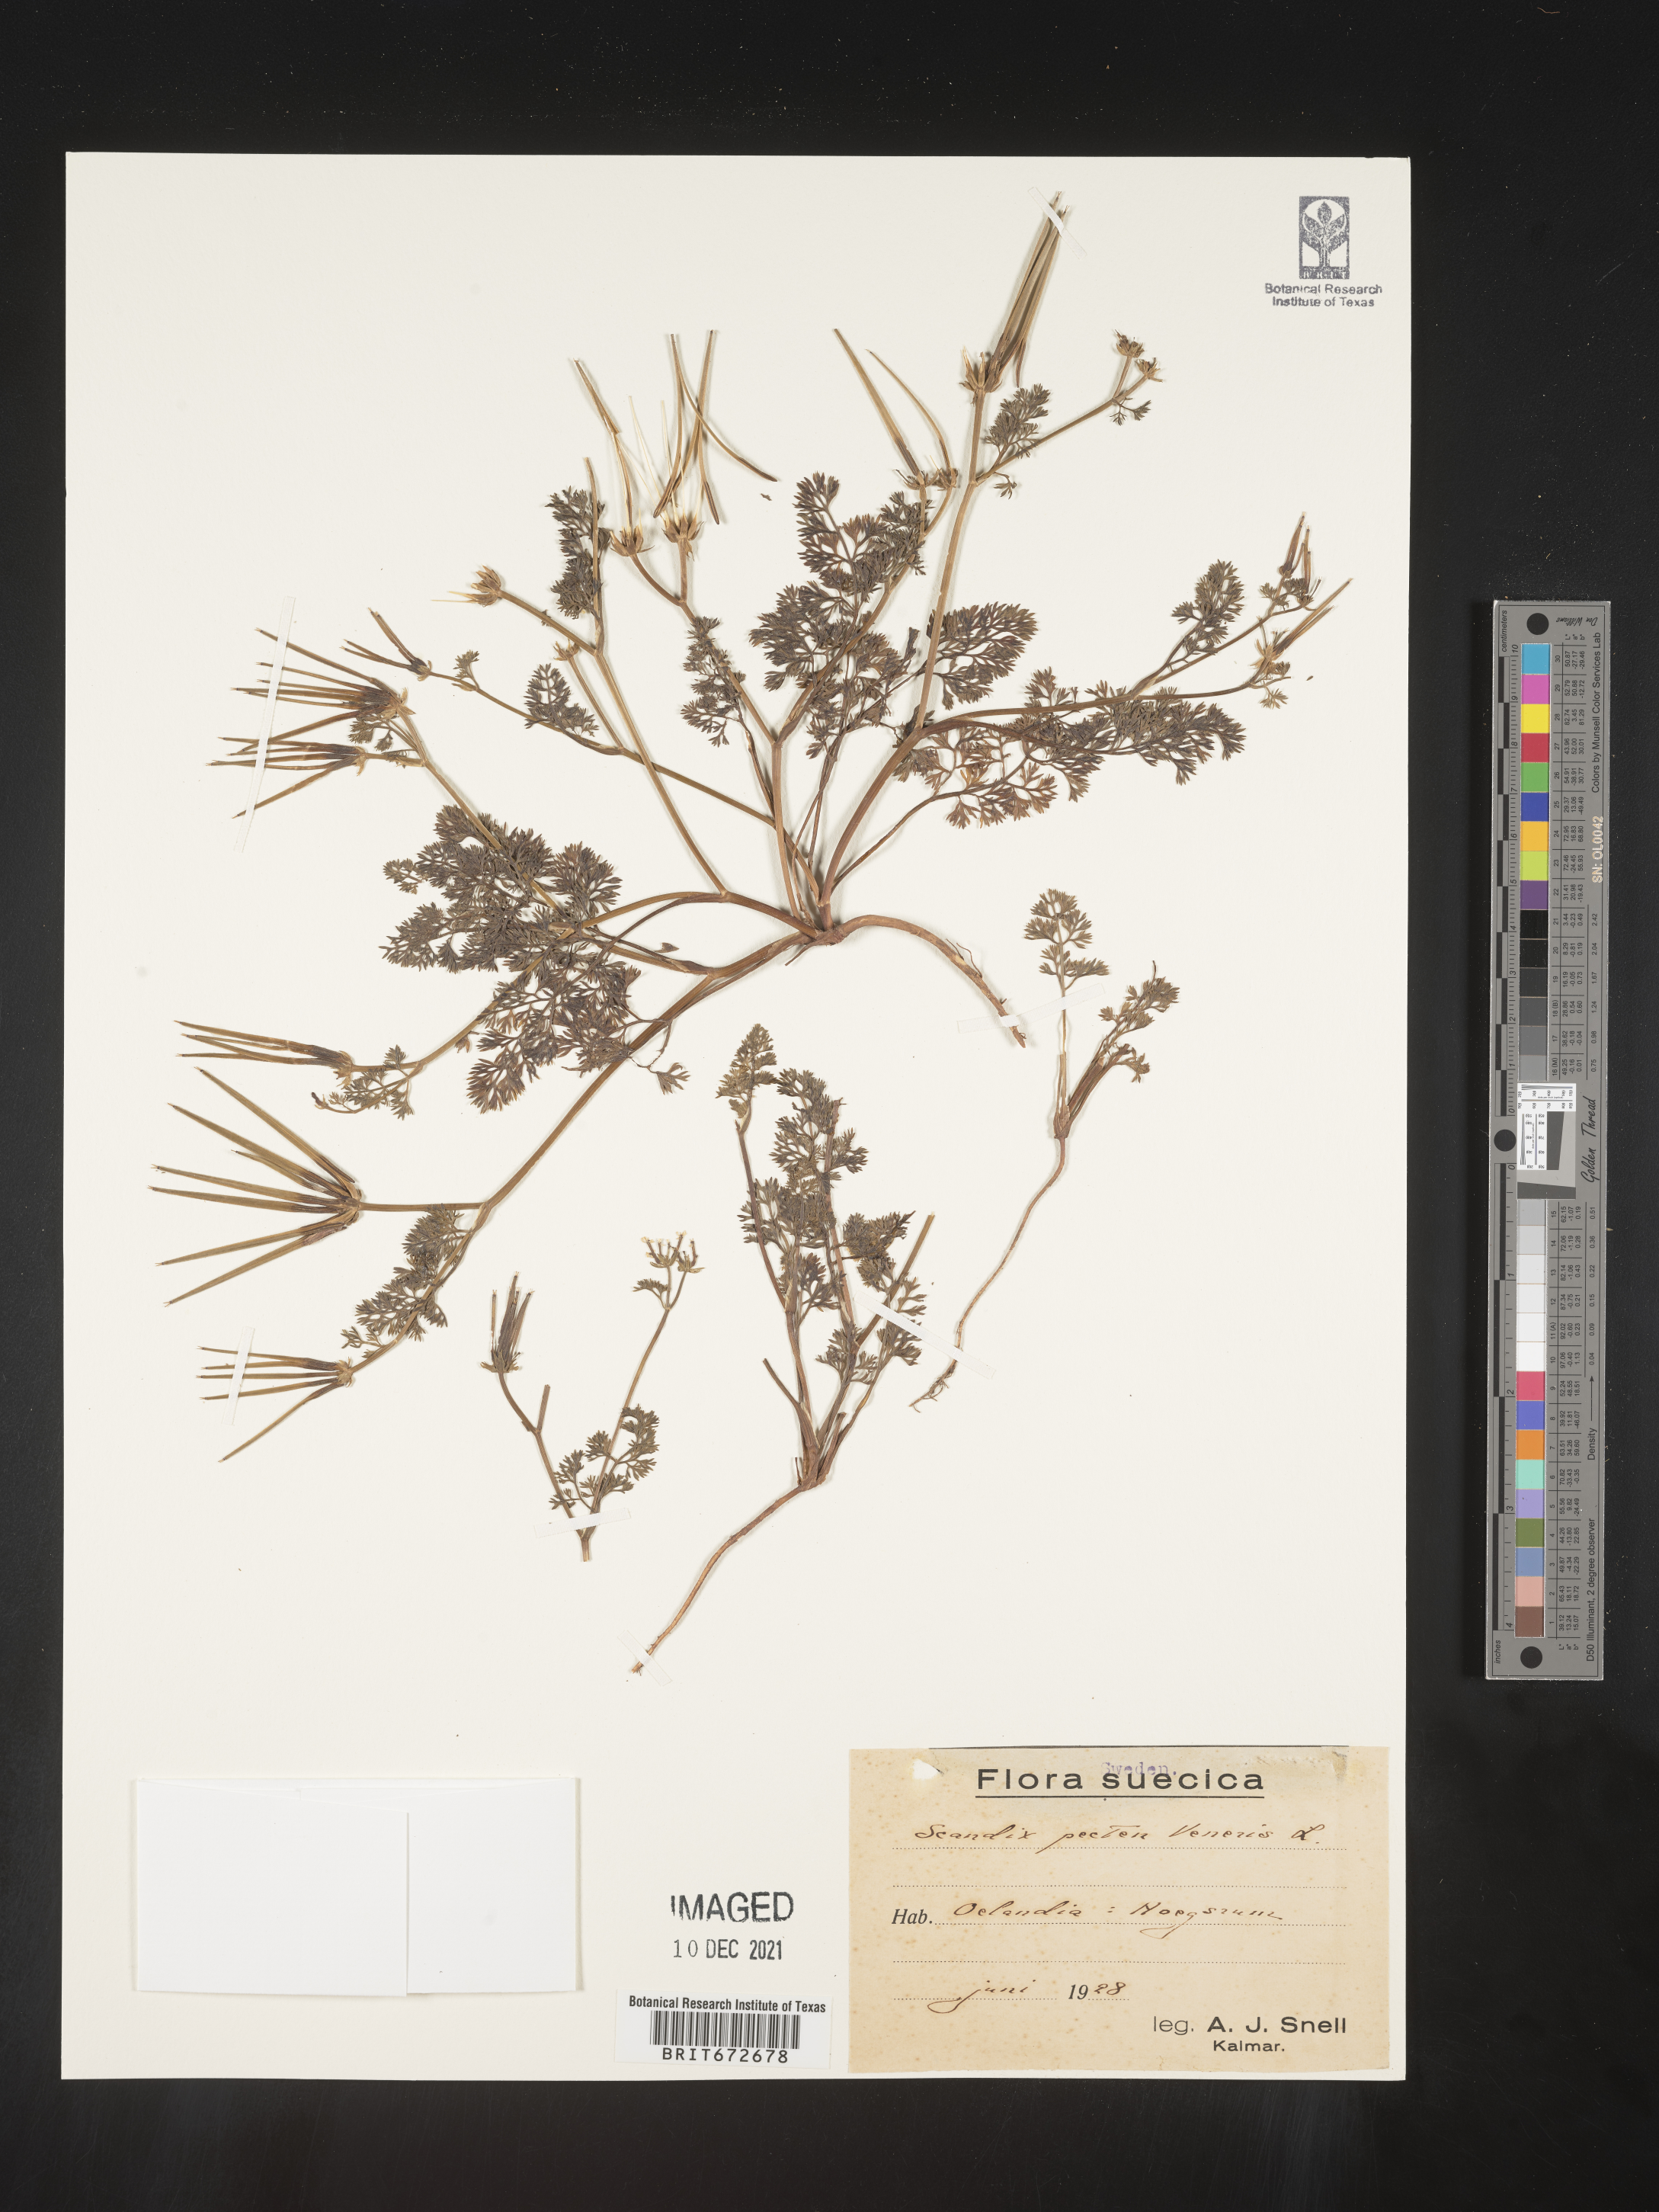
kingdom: Plantae
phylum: Tracheophyta
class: Magnoliopsida
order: Apiales
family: Apiaceae
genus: Scandix
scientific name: Scandix
